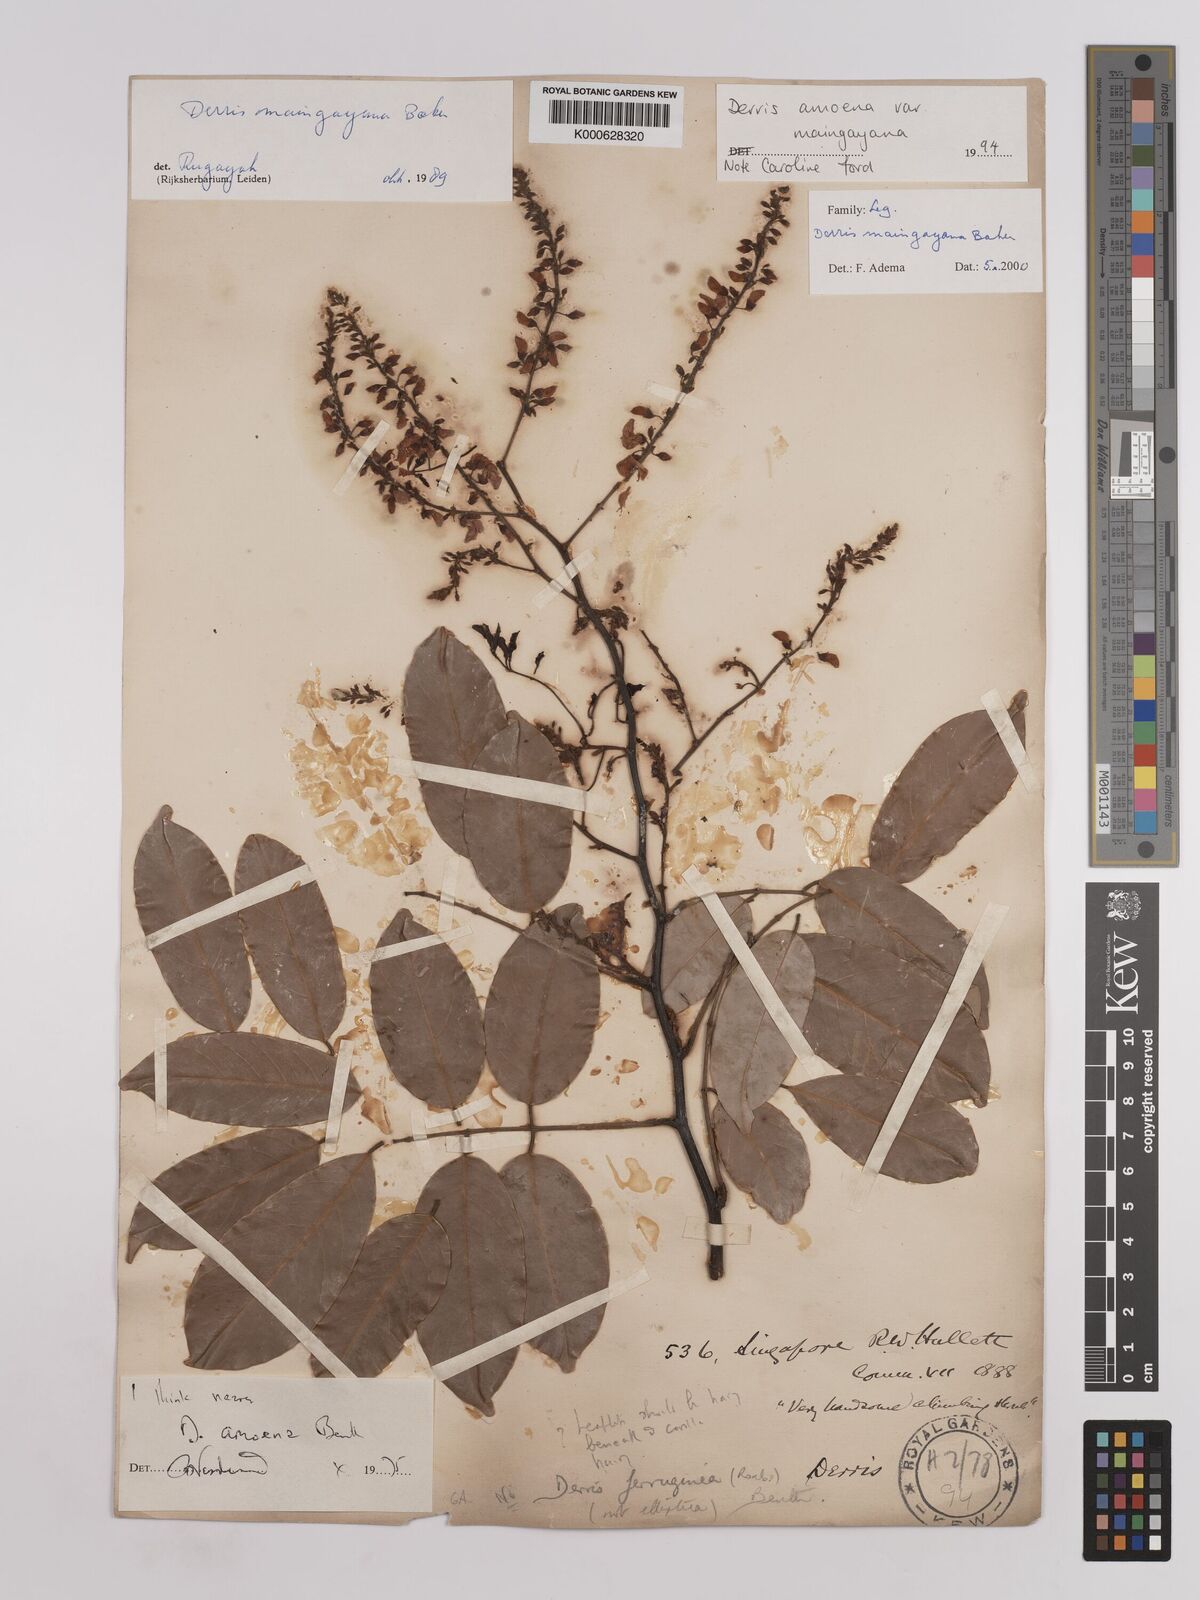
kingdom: Plantae
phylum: Tracheophyta
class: Magnoliopsida
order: Fabales
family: Fabaceae
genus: Derris
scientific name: Derris amoena
